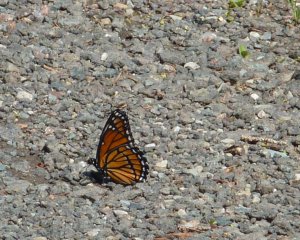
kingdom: Animalia
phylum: Arthropoda
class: Insecta
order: Lepidoptera
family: Nymphalidae
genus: Limenitis
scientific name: Limenitis archippus
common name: Viceroy
